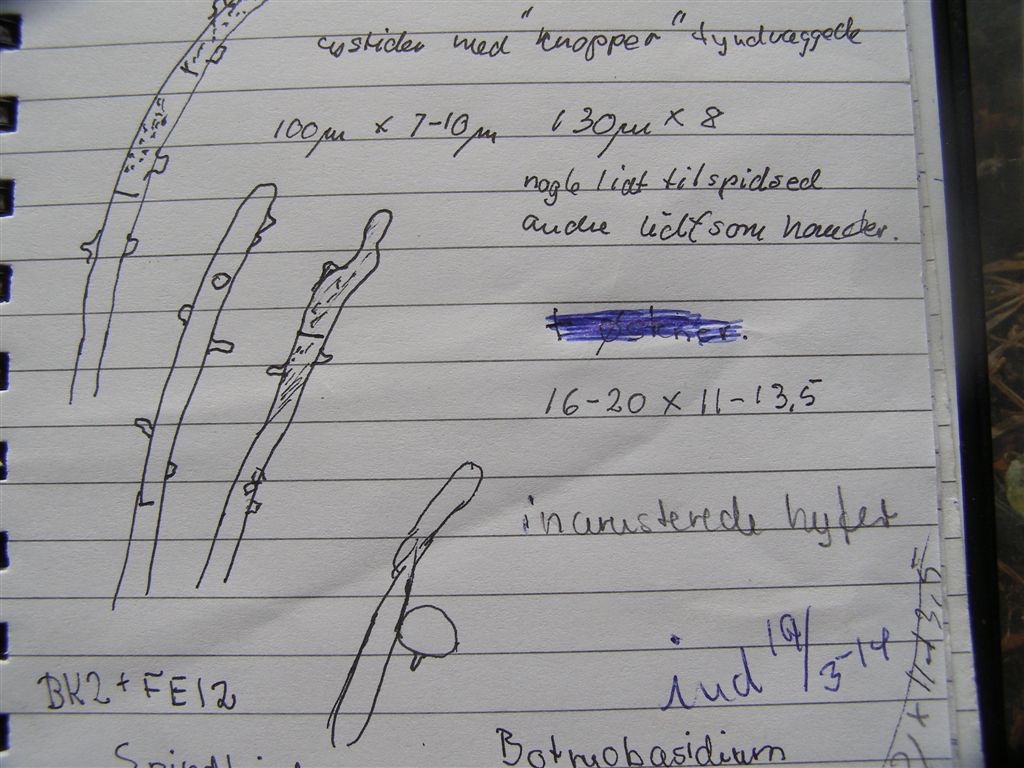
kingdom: Fungi
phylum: Basidiomycota
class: Agaricomycetes
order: Cantharellales
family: Botryobasidiaceae
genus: Botryobasidium
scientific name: Botryobasidium conspersum
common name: olivengrå spindhinde
